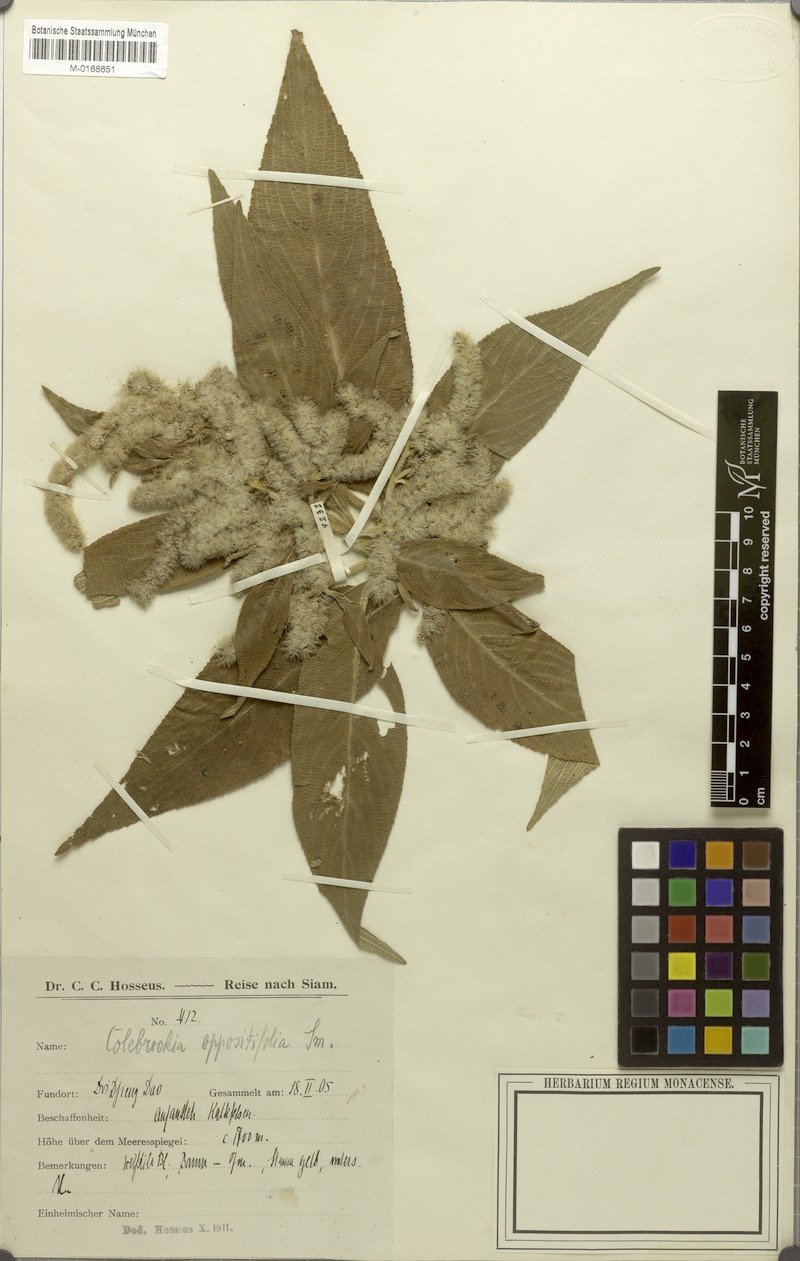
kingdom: Plantae
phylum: Tracheophyta
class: Magnoliopsida
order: Lamiales
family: Lamiaceae
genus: Colebrookea
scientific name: Colebrookea oppositifolia
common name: Indian squirrel tail
